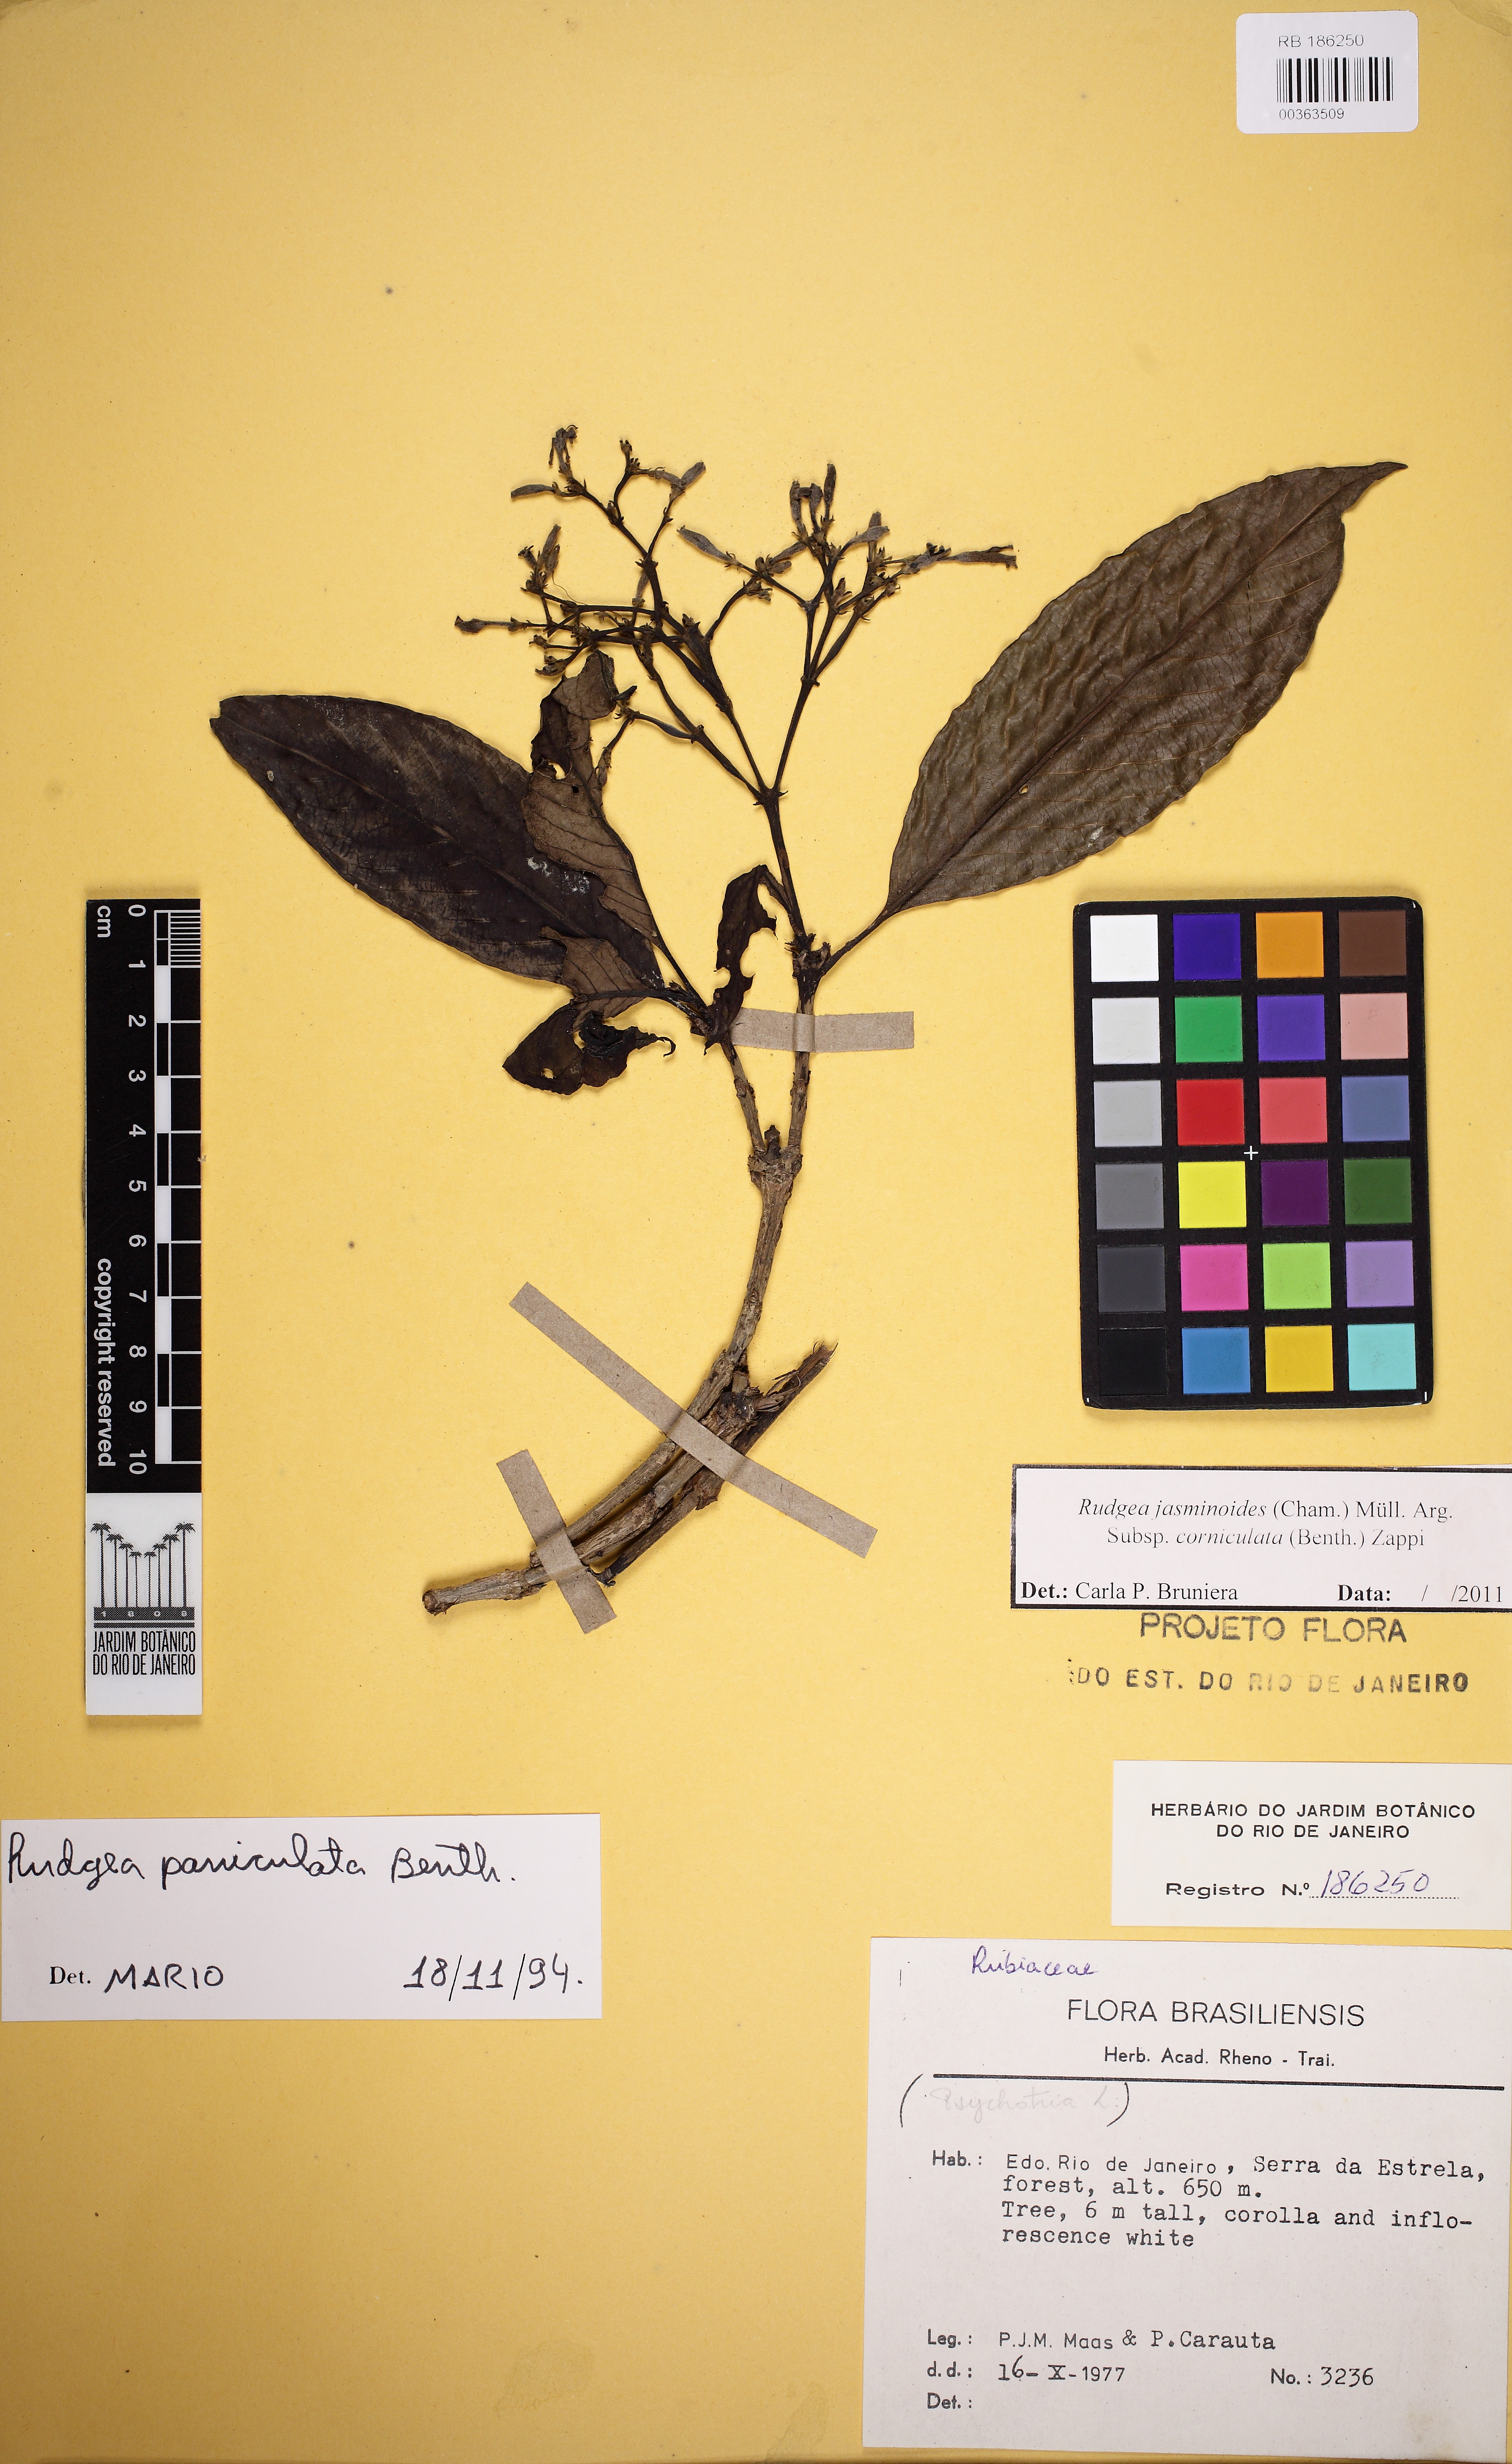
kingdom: Plantae
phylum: Tracheophyta
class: Magnoliopsida
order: Gentianales
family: Rubiaceae
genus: Rudgea
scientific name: Rudgea jasminoides
